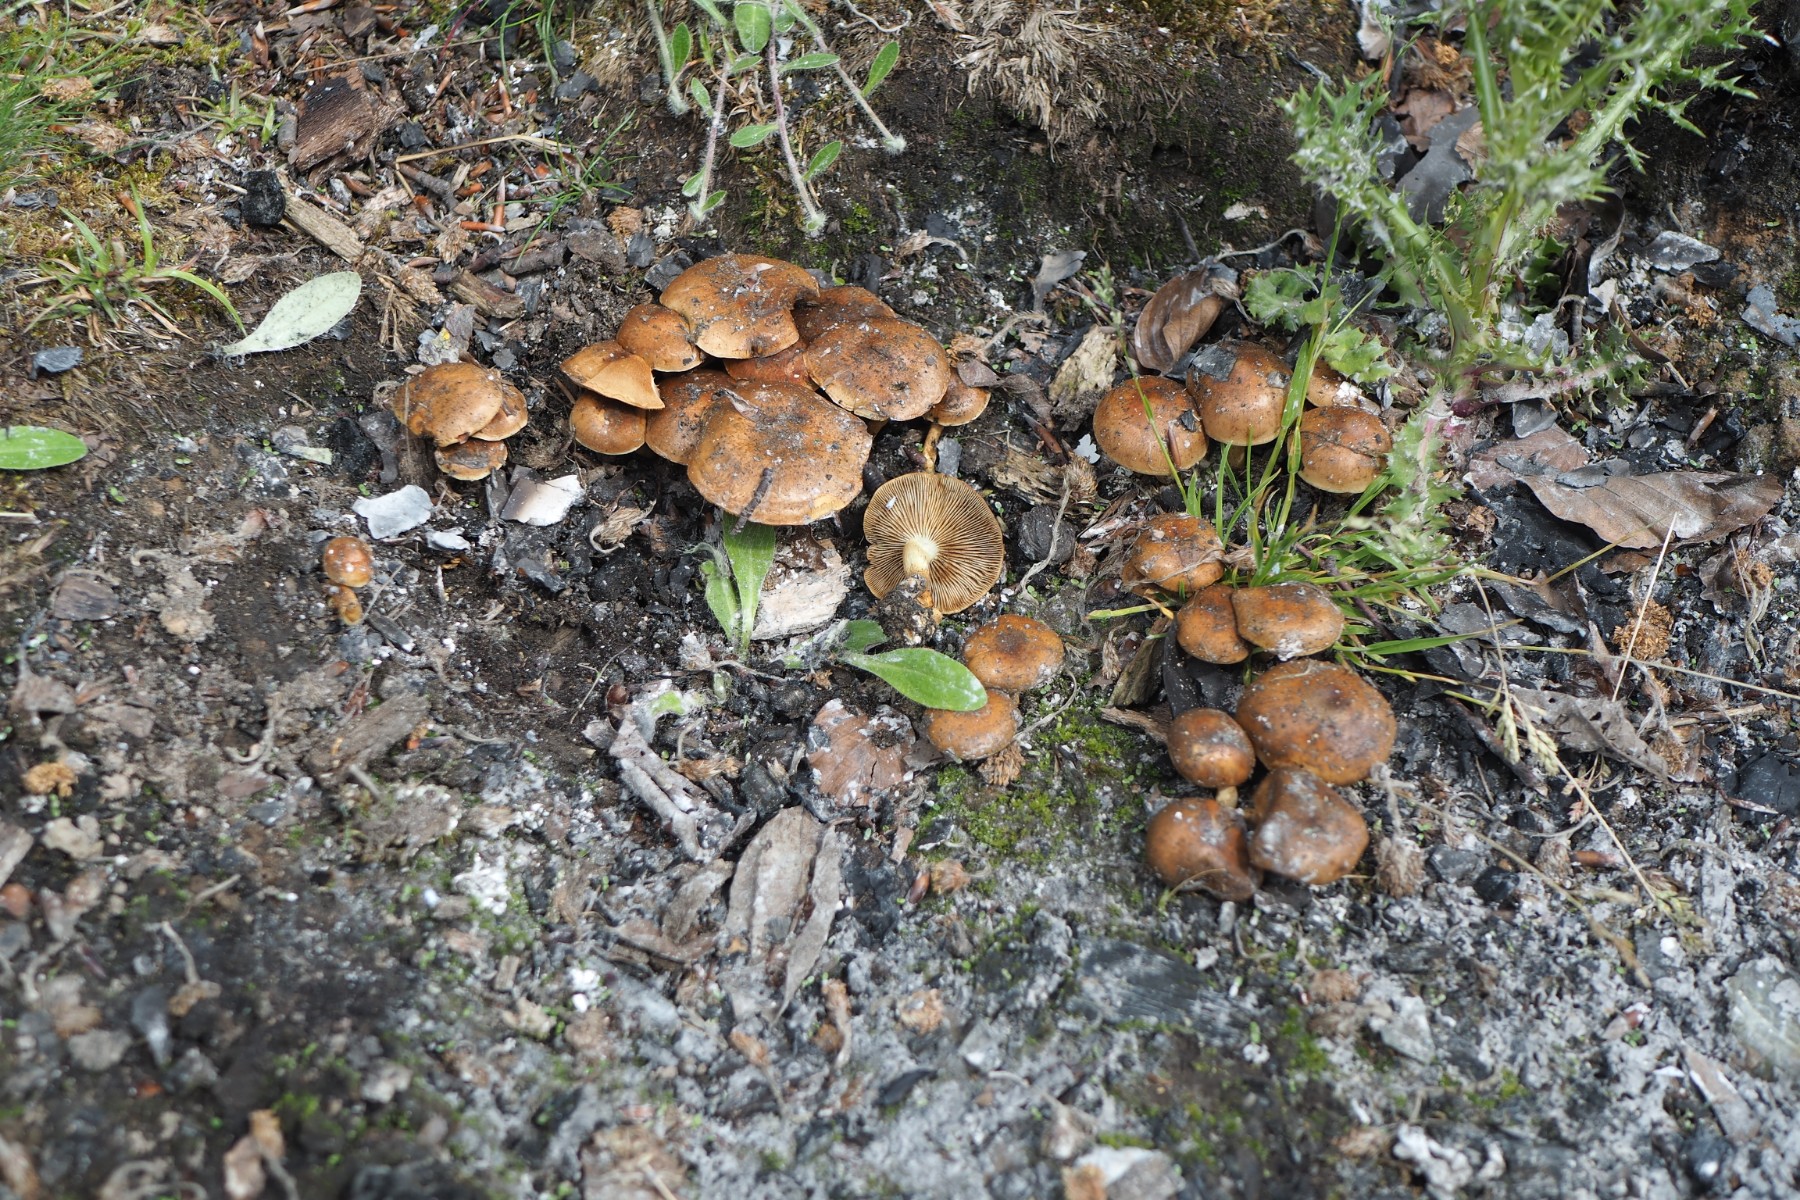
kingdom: Fungi
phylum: Basidiomycota
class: Agaricomycetes
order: Agaricales
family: Strophariaceae
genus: Pholiota
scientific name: Pholiota carbonaria
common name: kul-skælhat
